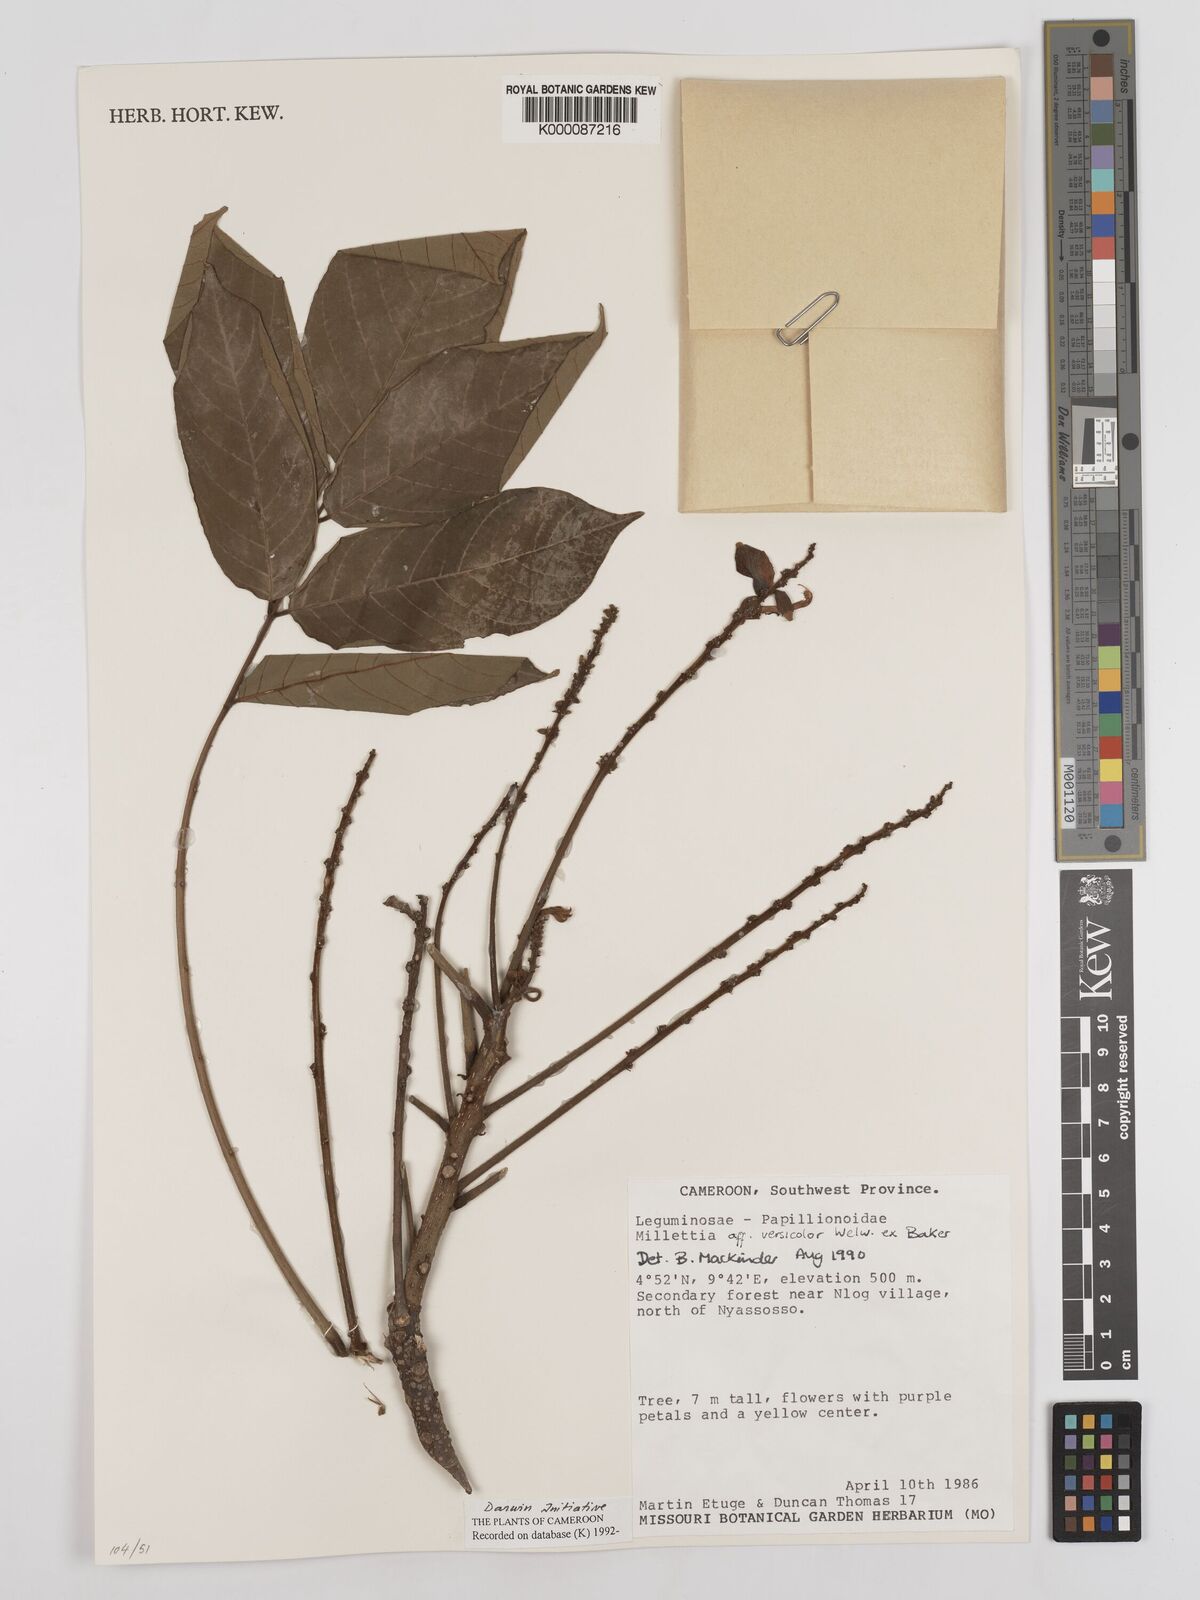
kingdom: Plantae
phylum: Tracheophyta
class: Magnoliopsida
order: Fabales
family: Fabaceae
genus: Millettia
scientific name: Millettia versicolor
